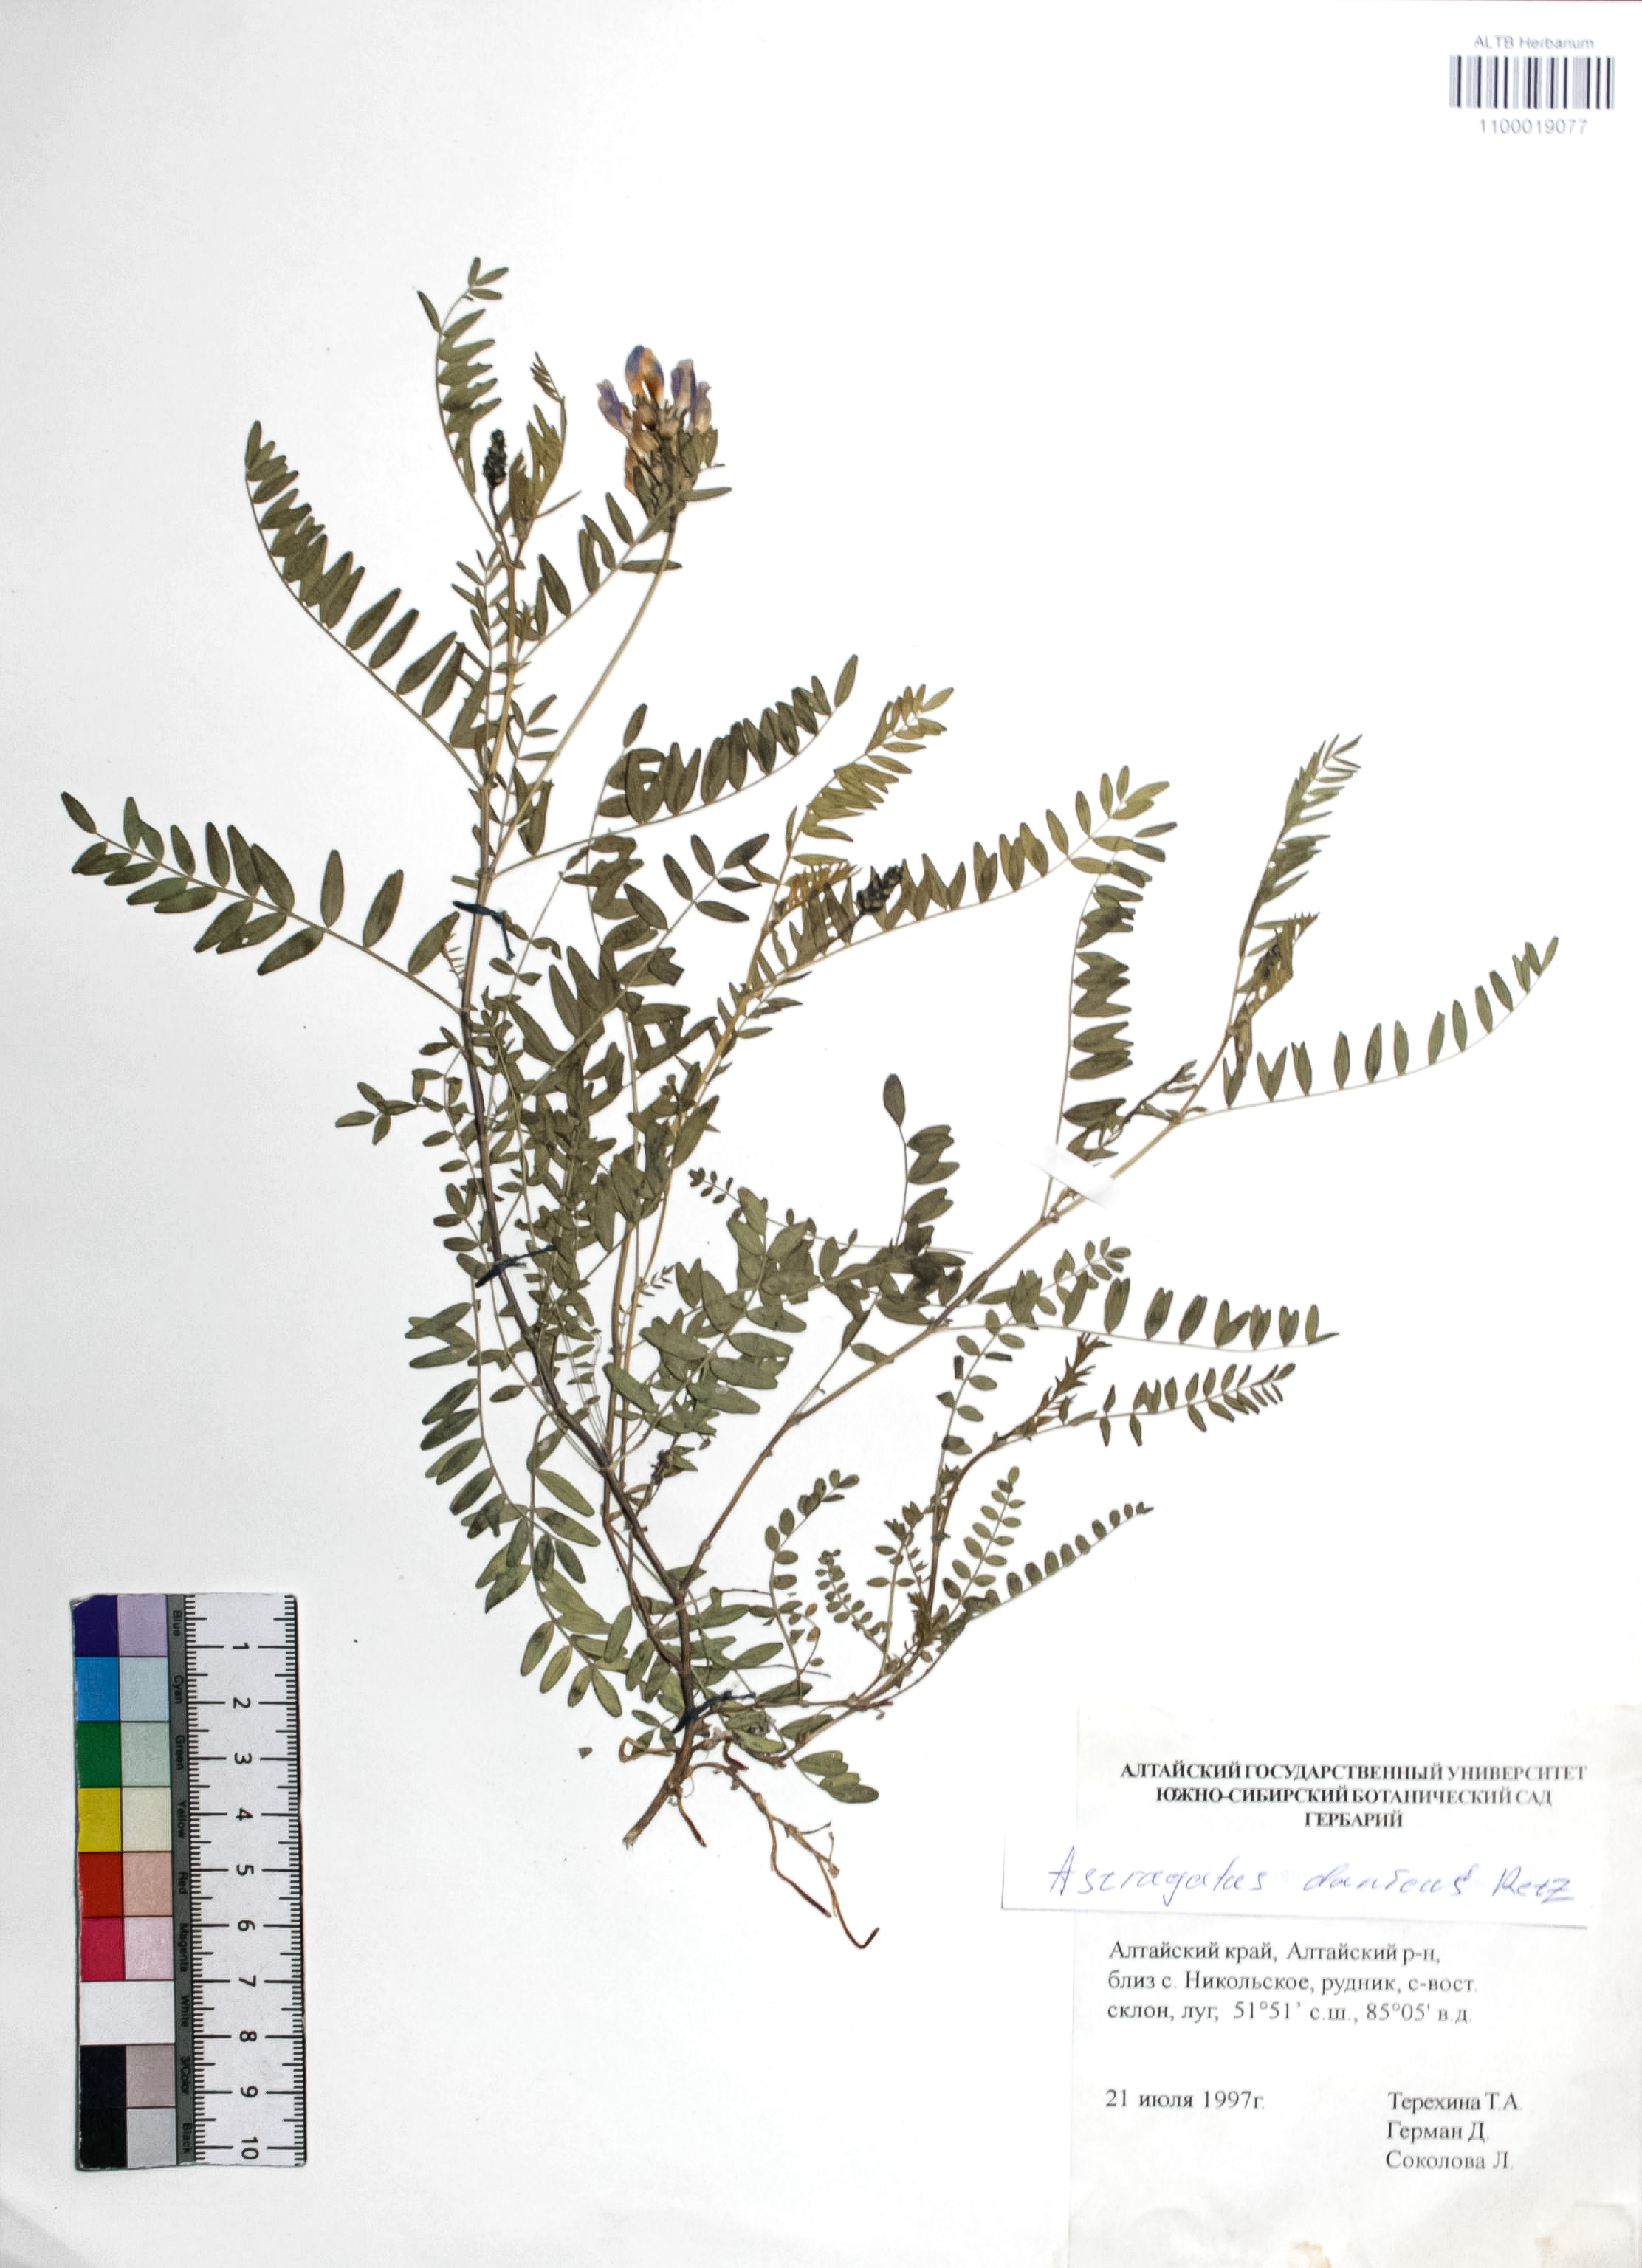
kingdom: Plantae
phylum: Tracheophyta
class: Magnoliopsida
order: Fabales
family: Fabaceae
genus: Astragalus
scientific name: Astragalus danicus
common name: Purple milk-vetch
